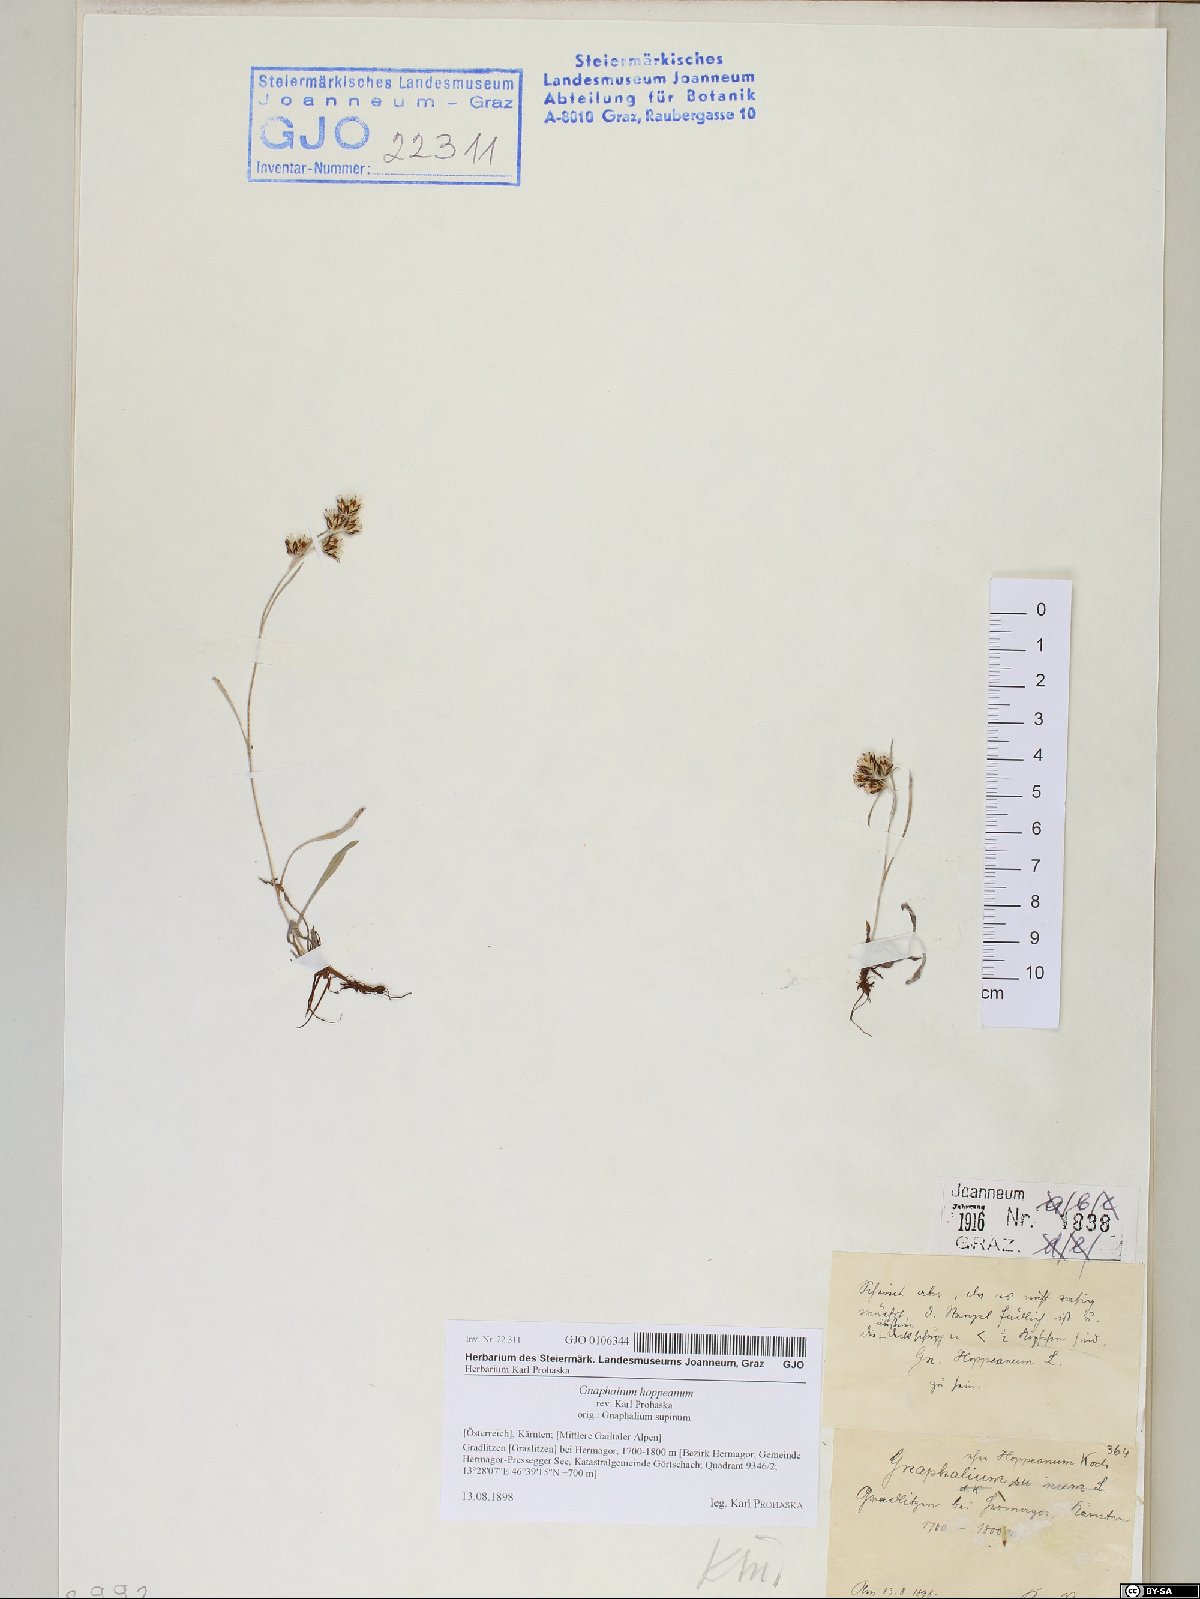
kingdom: Plantae
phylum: Tracheophyta
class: Magnoliopsida
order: Asterales
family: Asteraceae
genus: Omalotheca
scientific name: Omalotheca hoppeana
